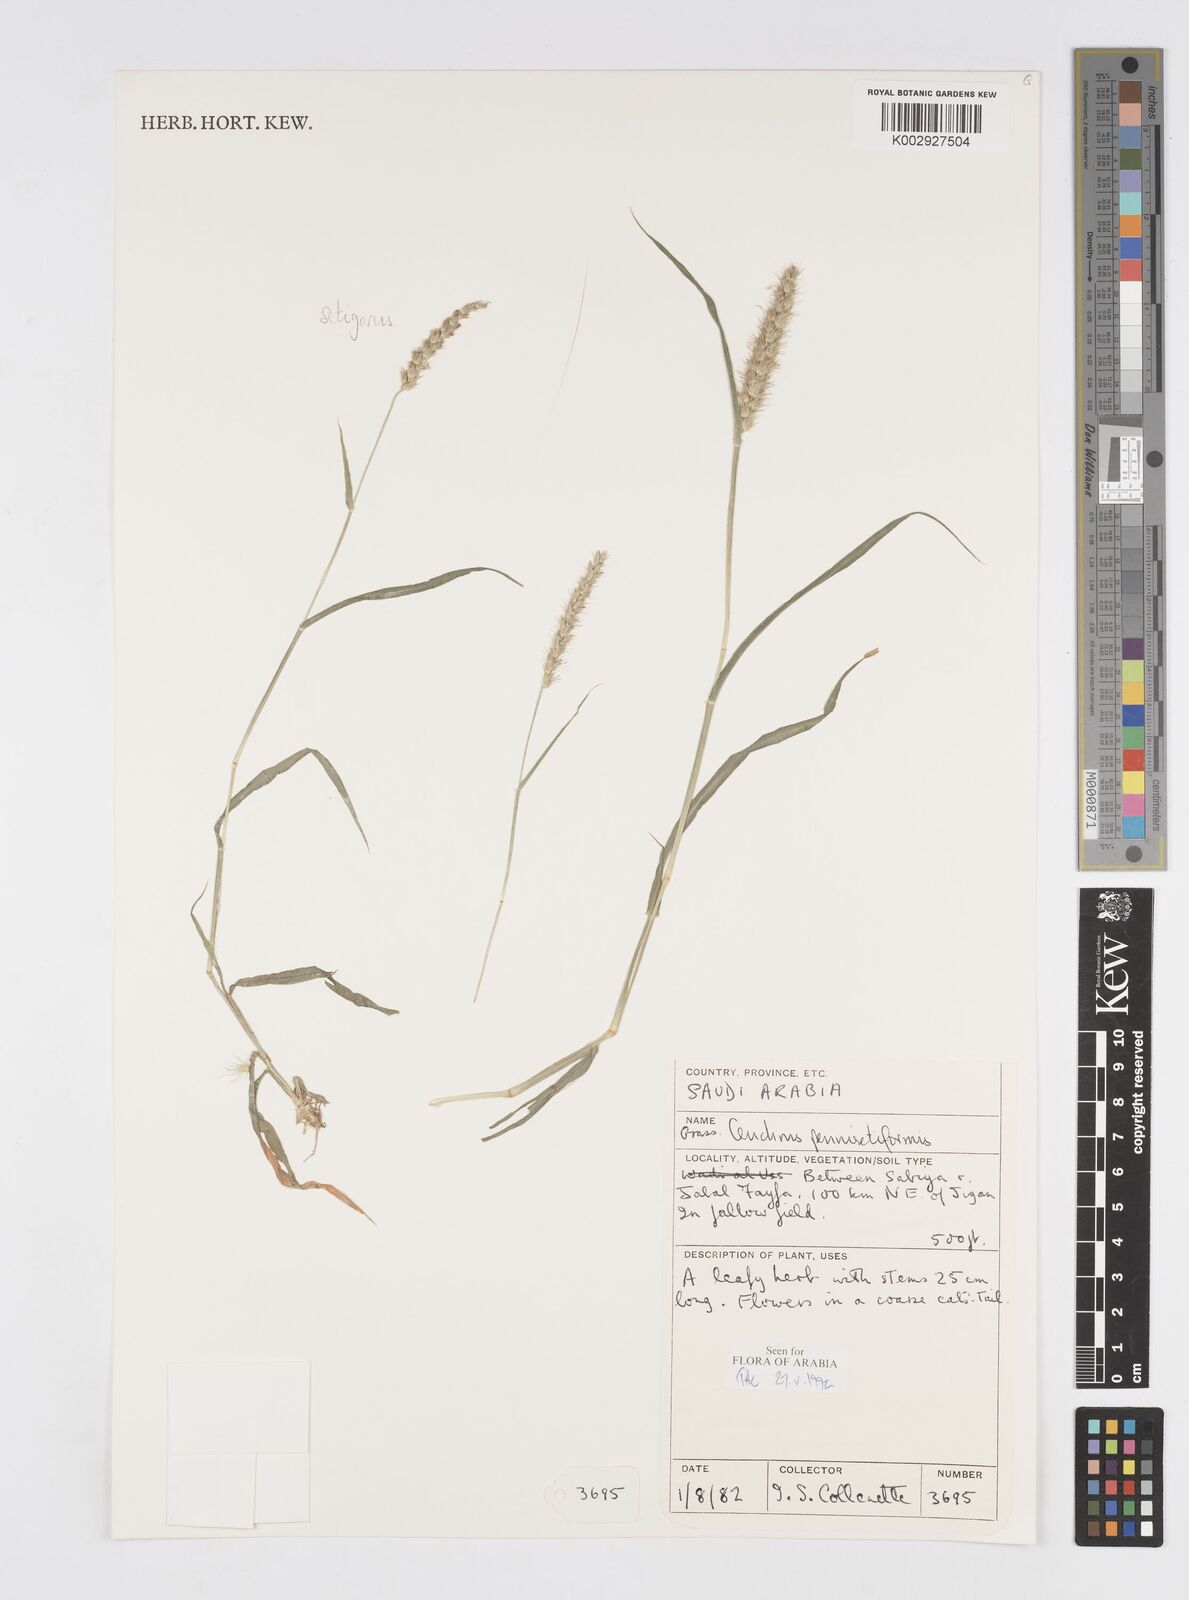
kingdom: Plantae
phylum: Tracheophyta
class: Liliopsida
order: Poales
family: Poaceae
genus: Cenchrus
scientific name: Cenchrus
